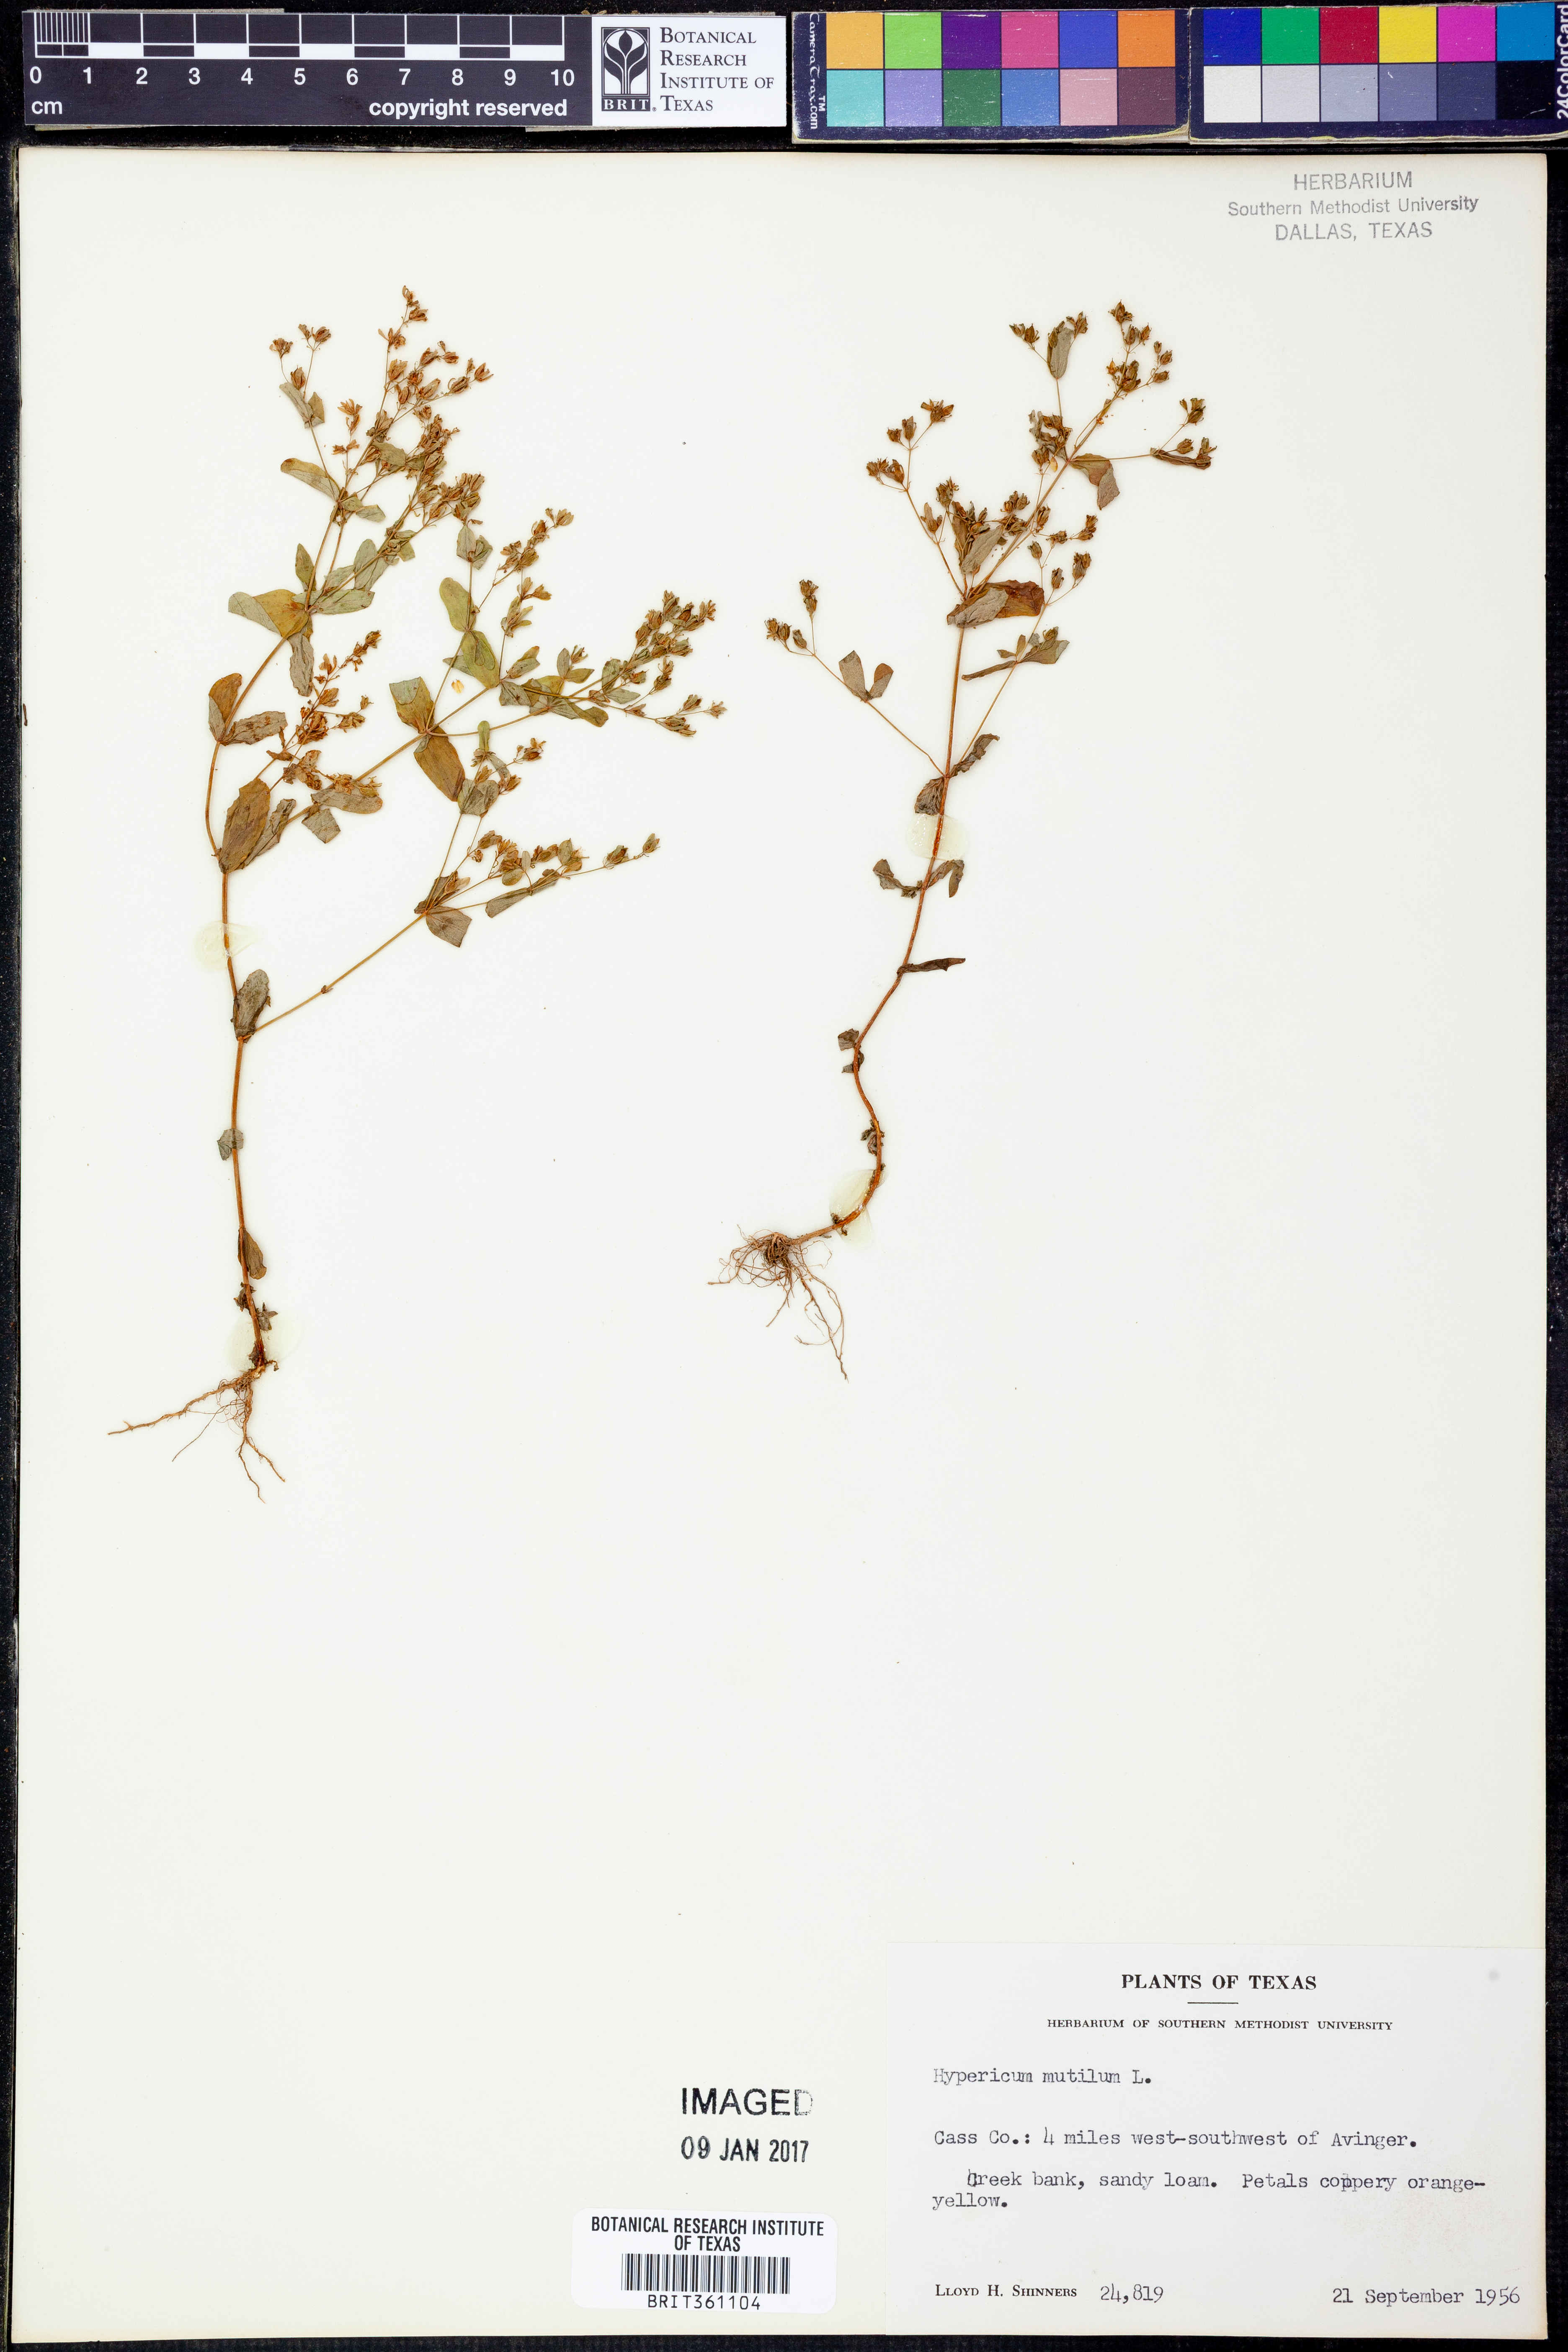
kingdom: Plantae
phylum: Tracheophyta
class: Magnoliopsida
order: Malpighiales
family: Hypericaceae
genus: Hypericum
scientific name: Hypericum mutilum
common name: Dwarf st. john's-wort
